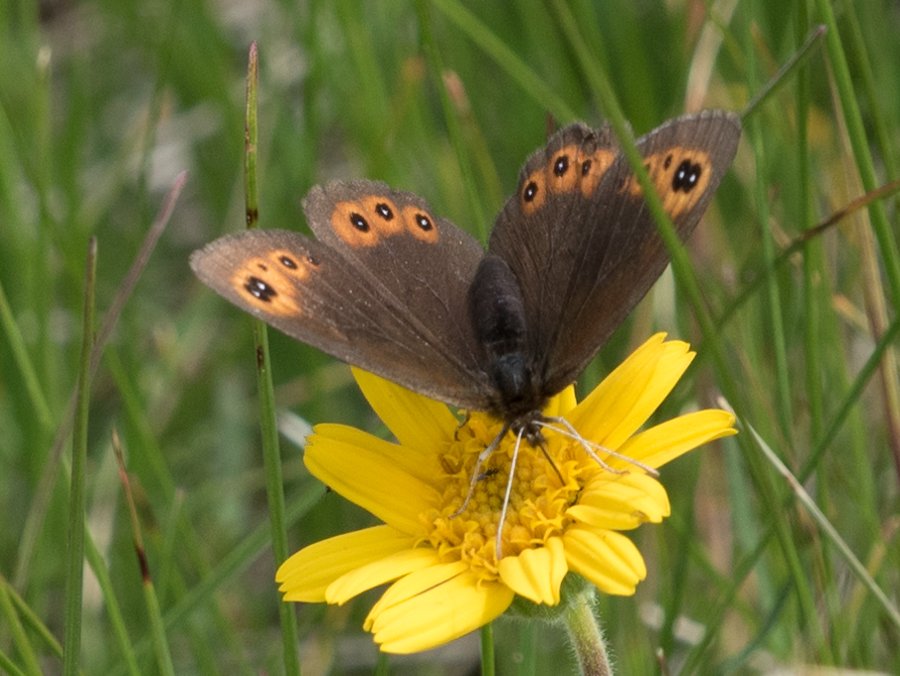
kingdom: Animalia
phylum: Arthropoda
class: Insecta
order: Lepidoptera
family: Nymphalidae
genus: Erebia
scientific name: Erebia epipsodea
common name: Common Alpine
